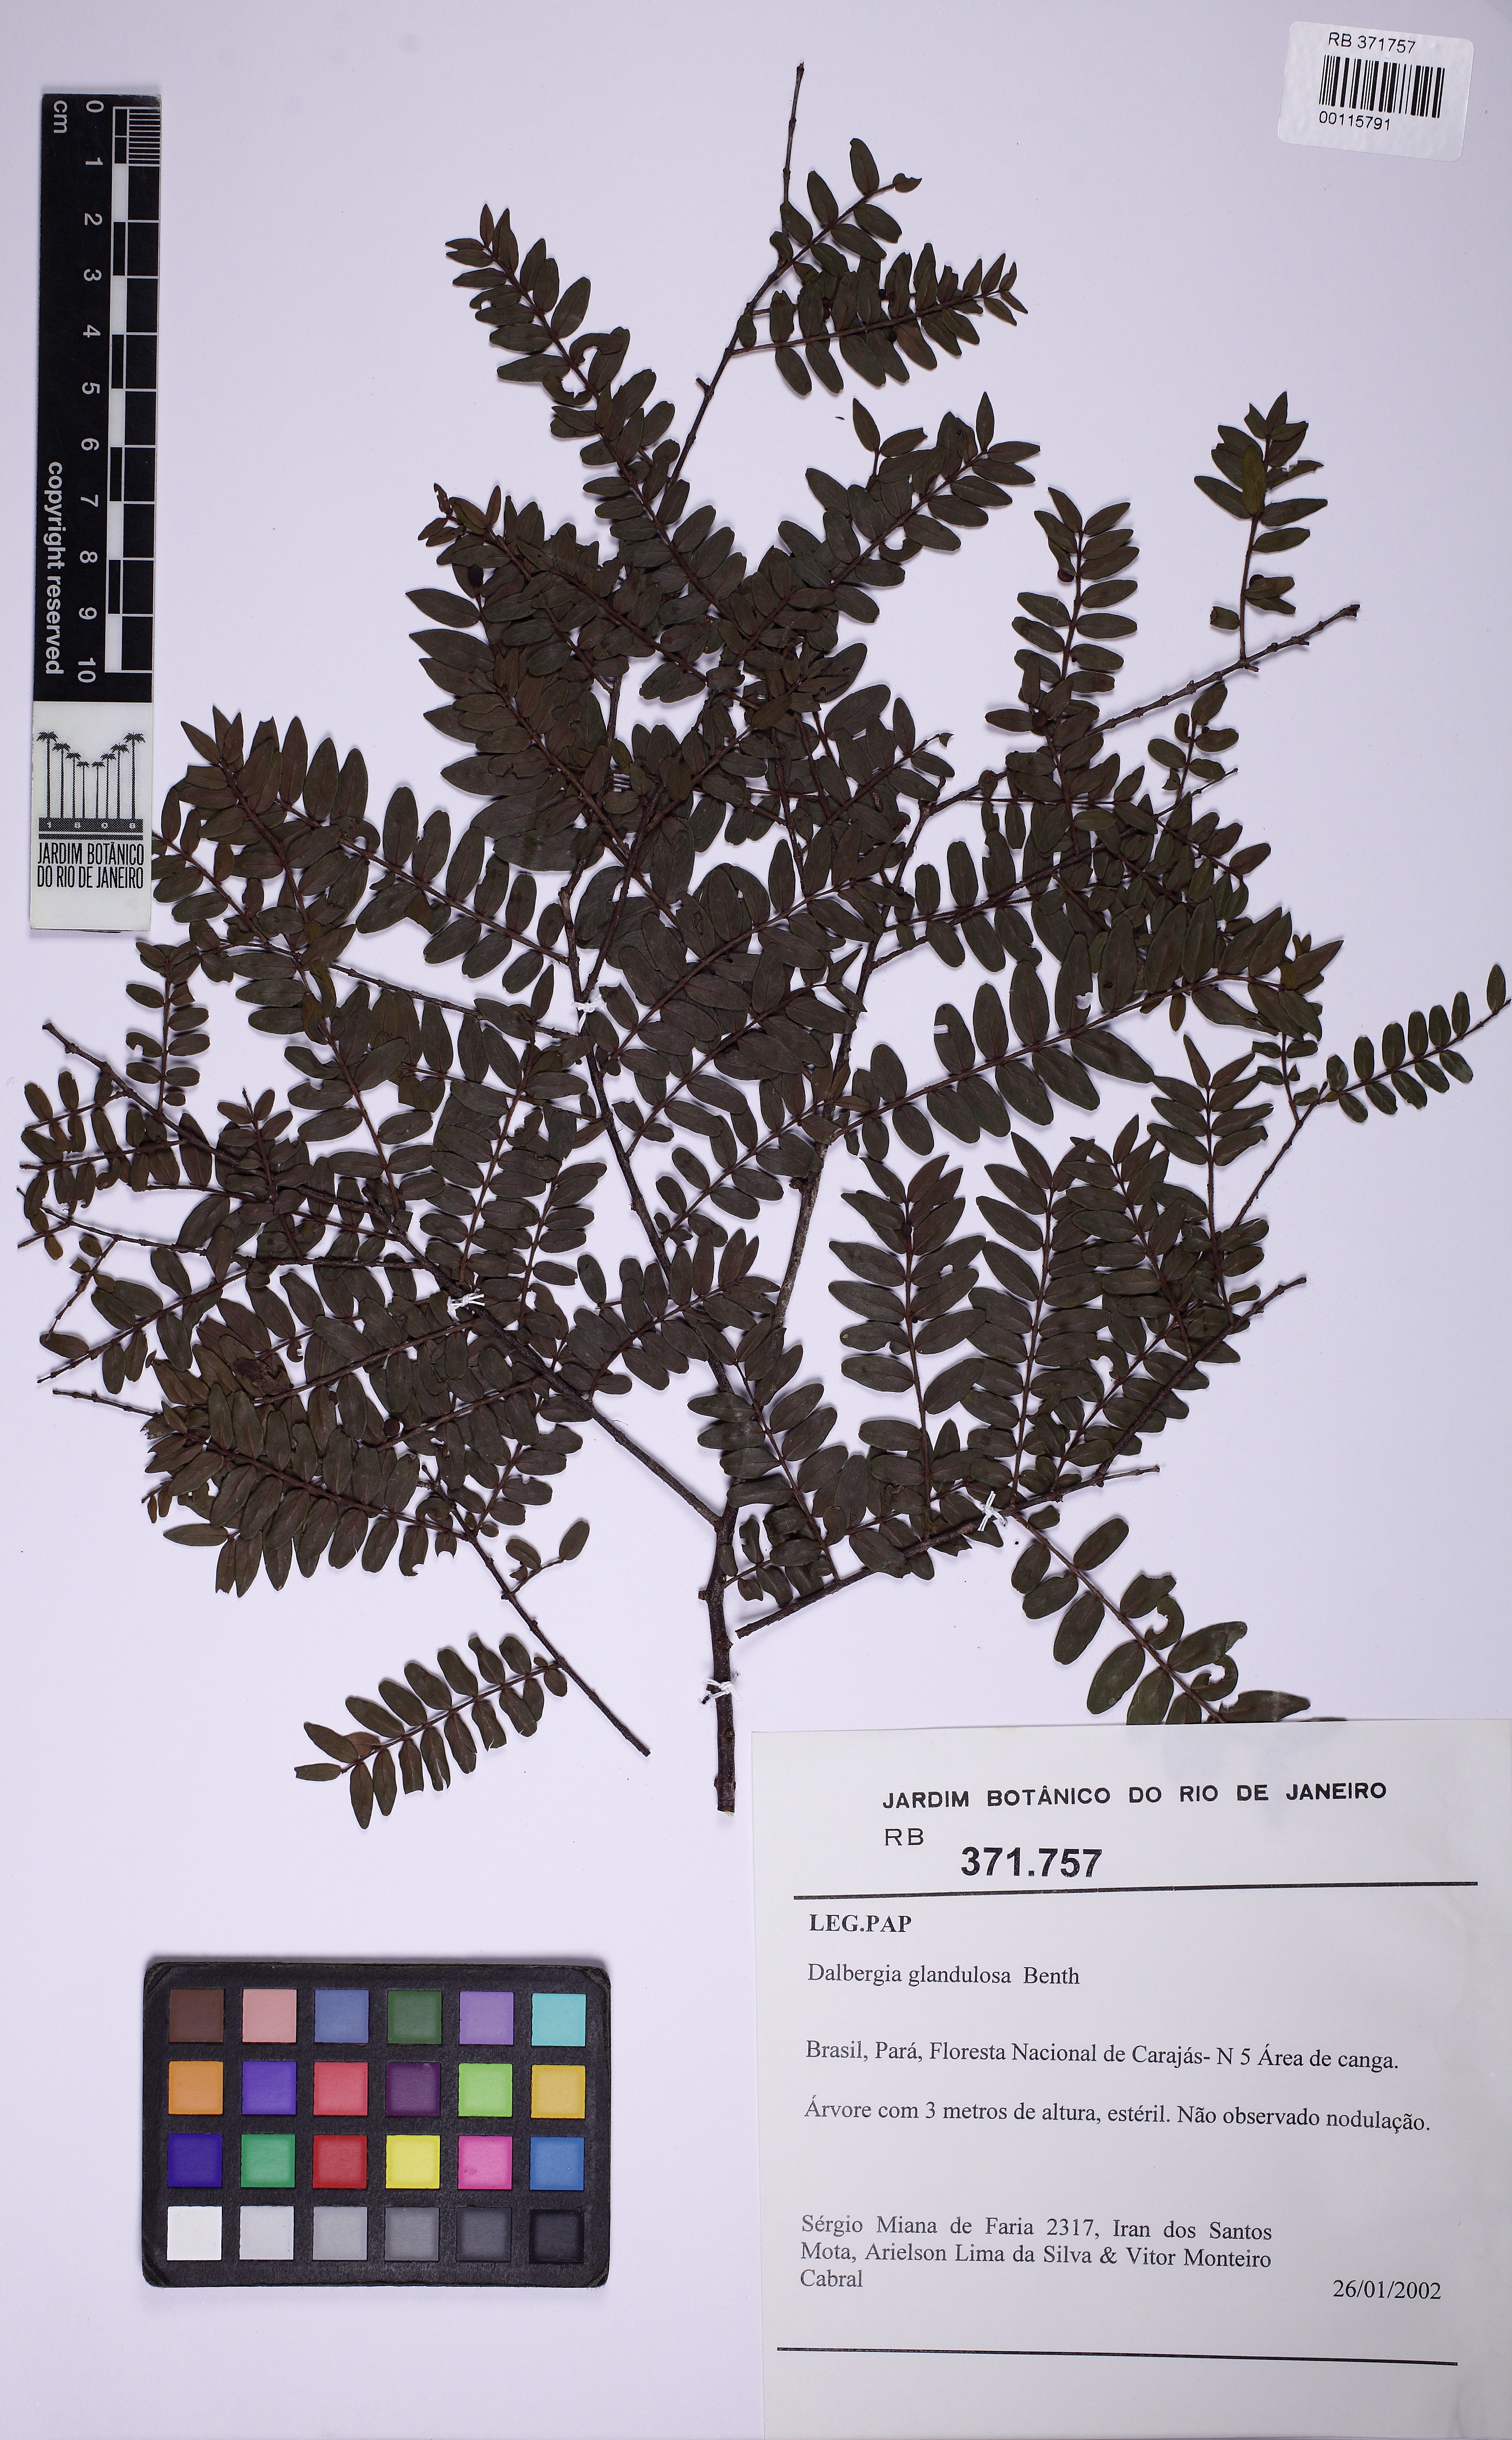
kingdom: Plantae
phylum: Tracheophyta
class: Magnoliopsida
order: Myrtales
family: Vochysiaceae
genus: Callisthene
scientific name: Callisthene
